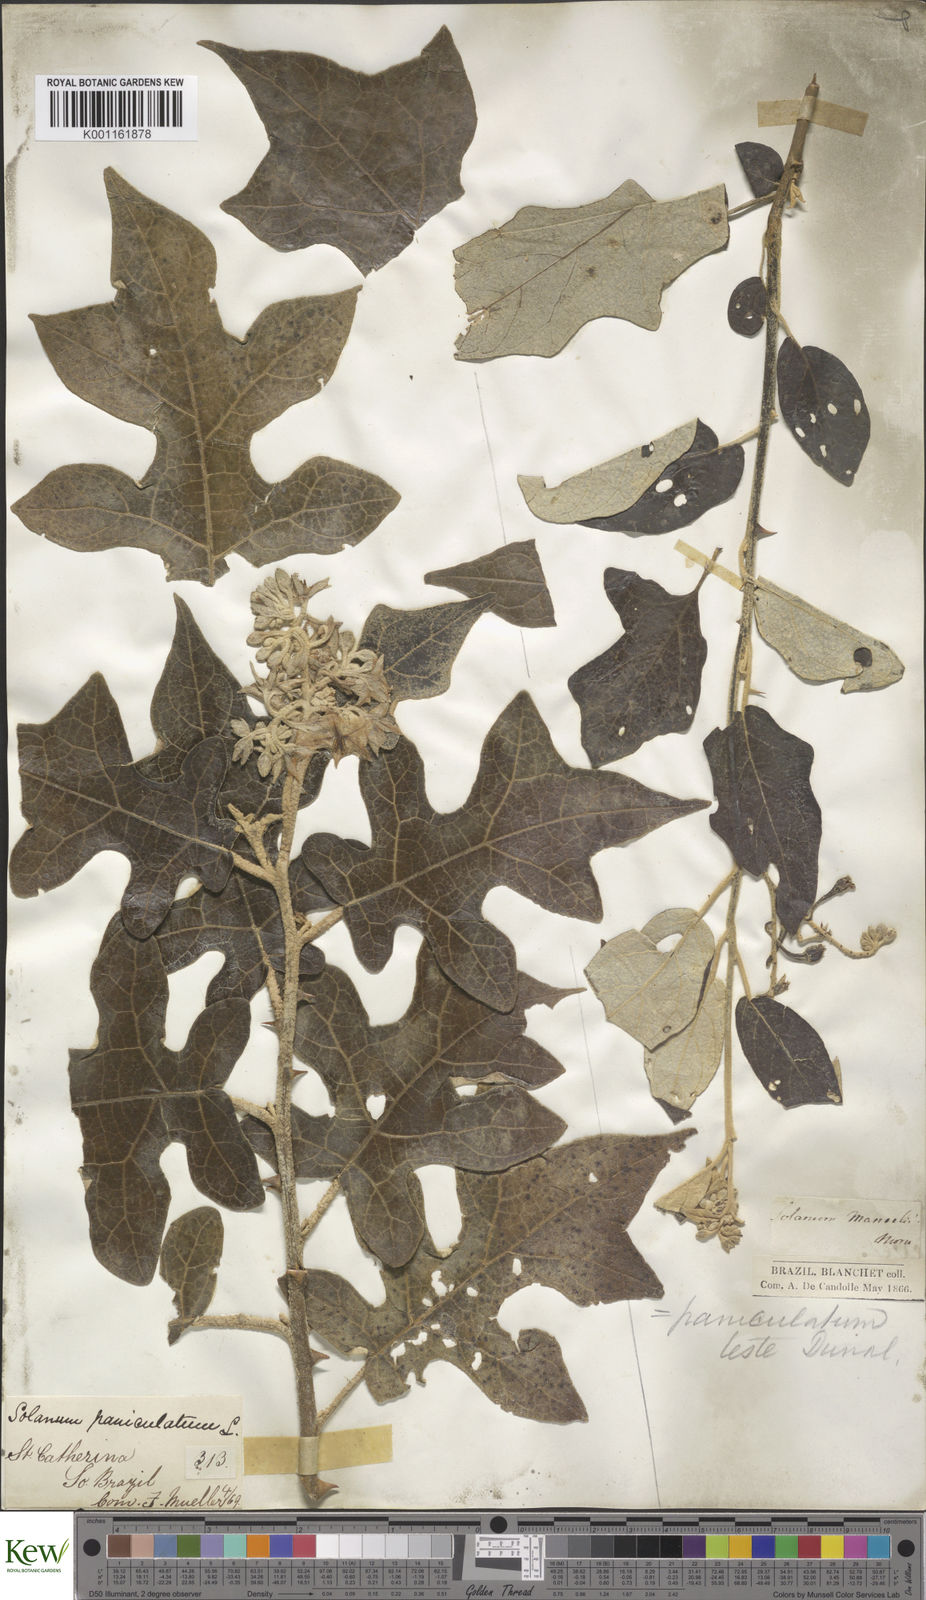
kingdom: Plantae
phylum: Tracheophyta
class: Magnoliopsida
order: Solanales
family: Solanaceae
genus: Solanum
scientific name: Solanum paniculatum
